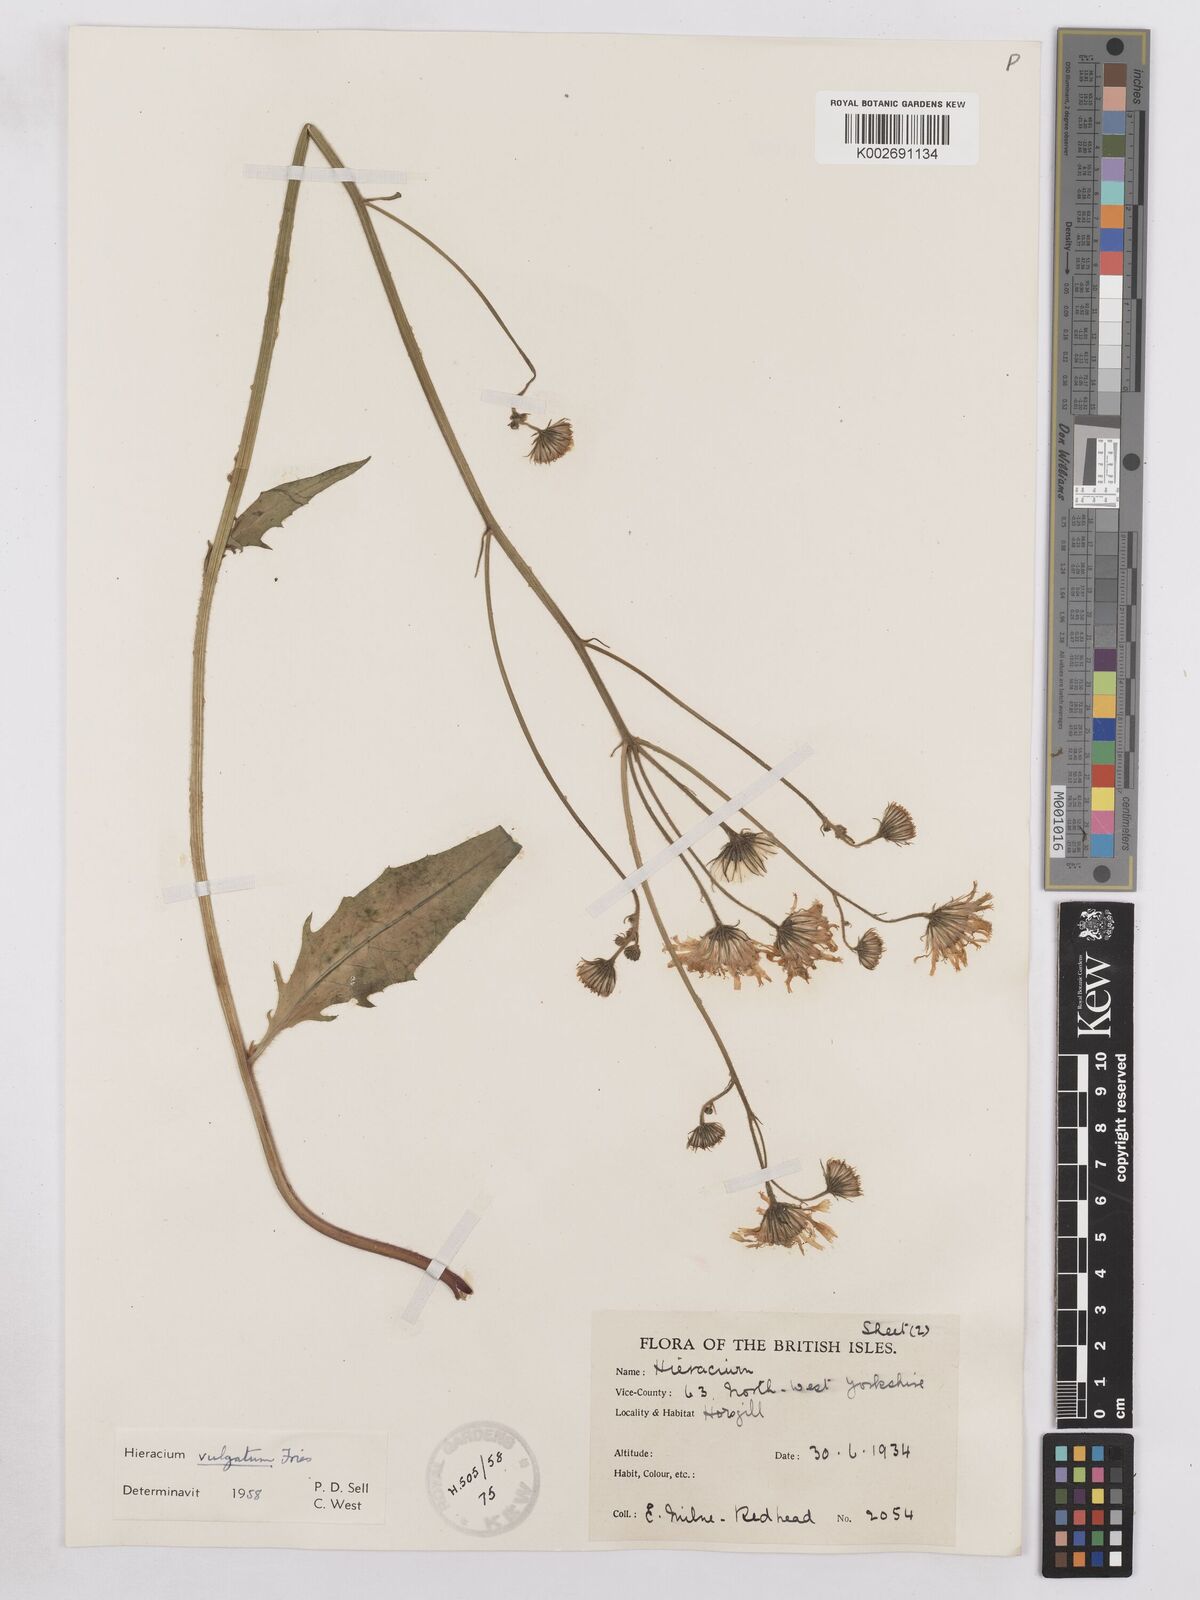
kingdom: Plantae
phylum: Tracheophyta
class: Magnoliopsida
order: Asterales
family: Asteraceae
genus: Hieracium
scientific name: Hieracium lachenalii
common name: Common hawkweed
